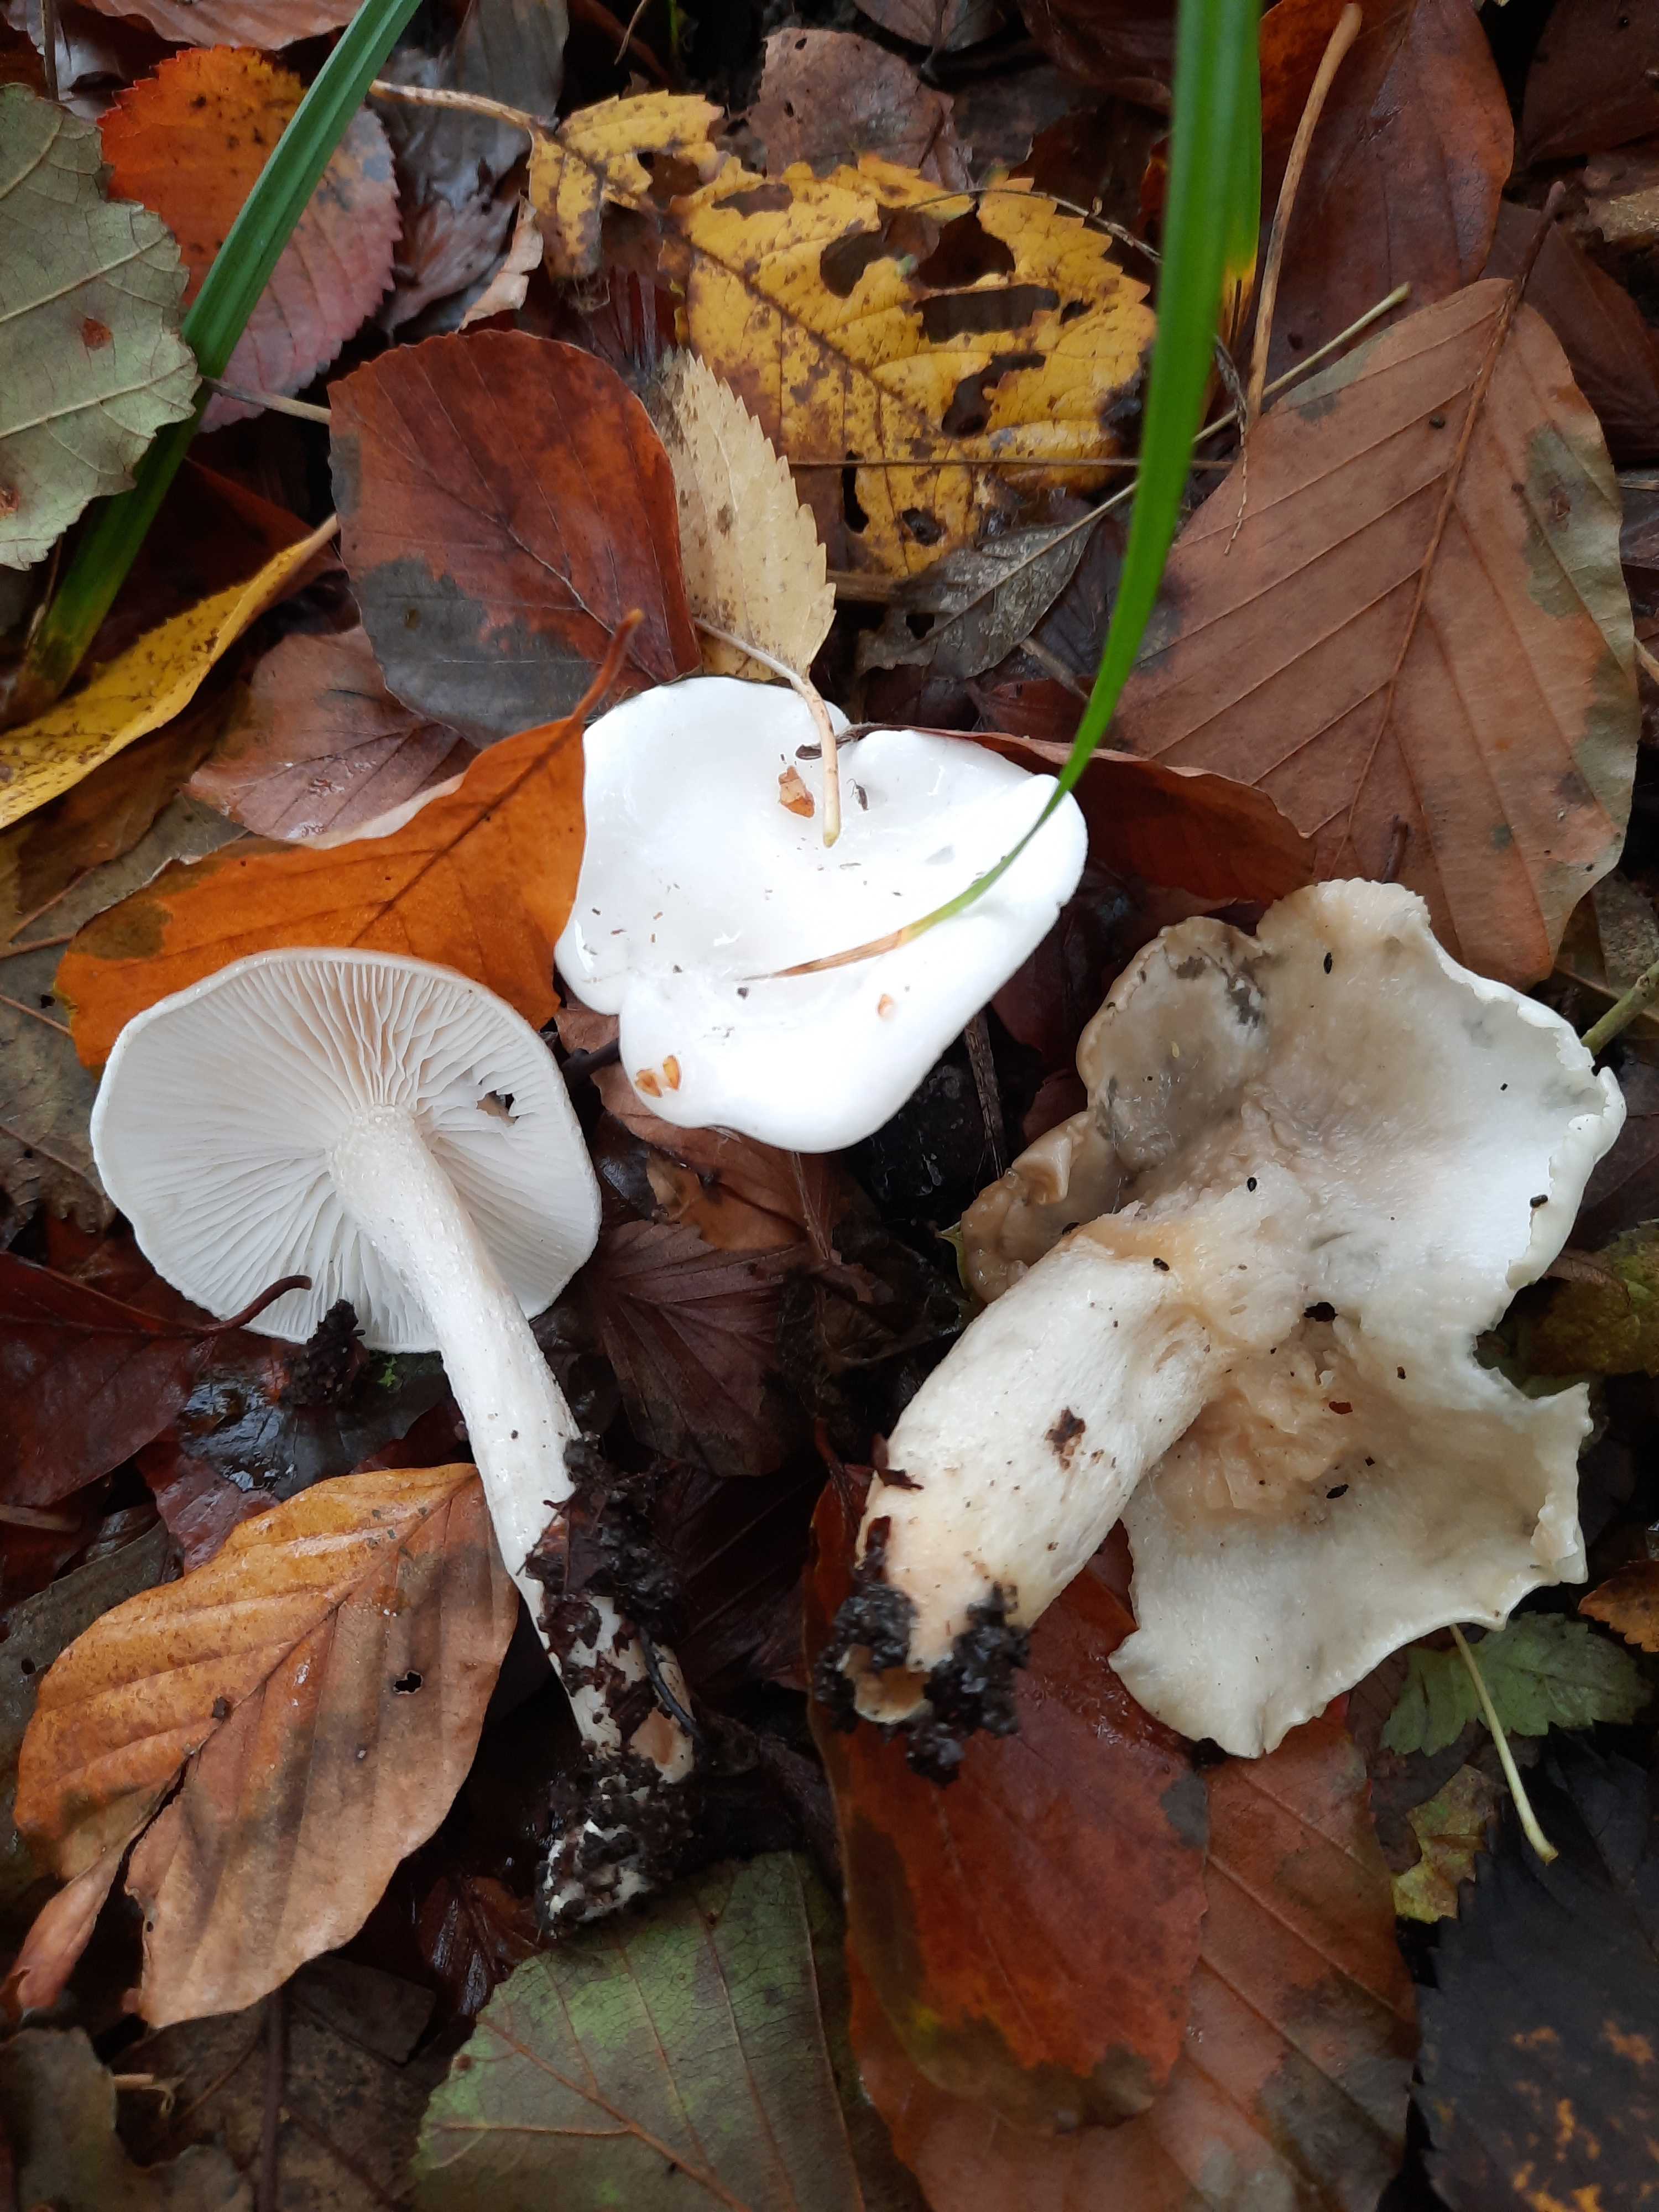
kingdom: Fungi
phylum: Basidiomycota
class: Agaricomycetes
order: Agaricales
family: Hygrophoraceae
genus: Hygrophorus
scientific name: Hygrophorus eburneus
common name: elfenbens-sneglehat
